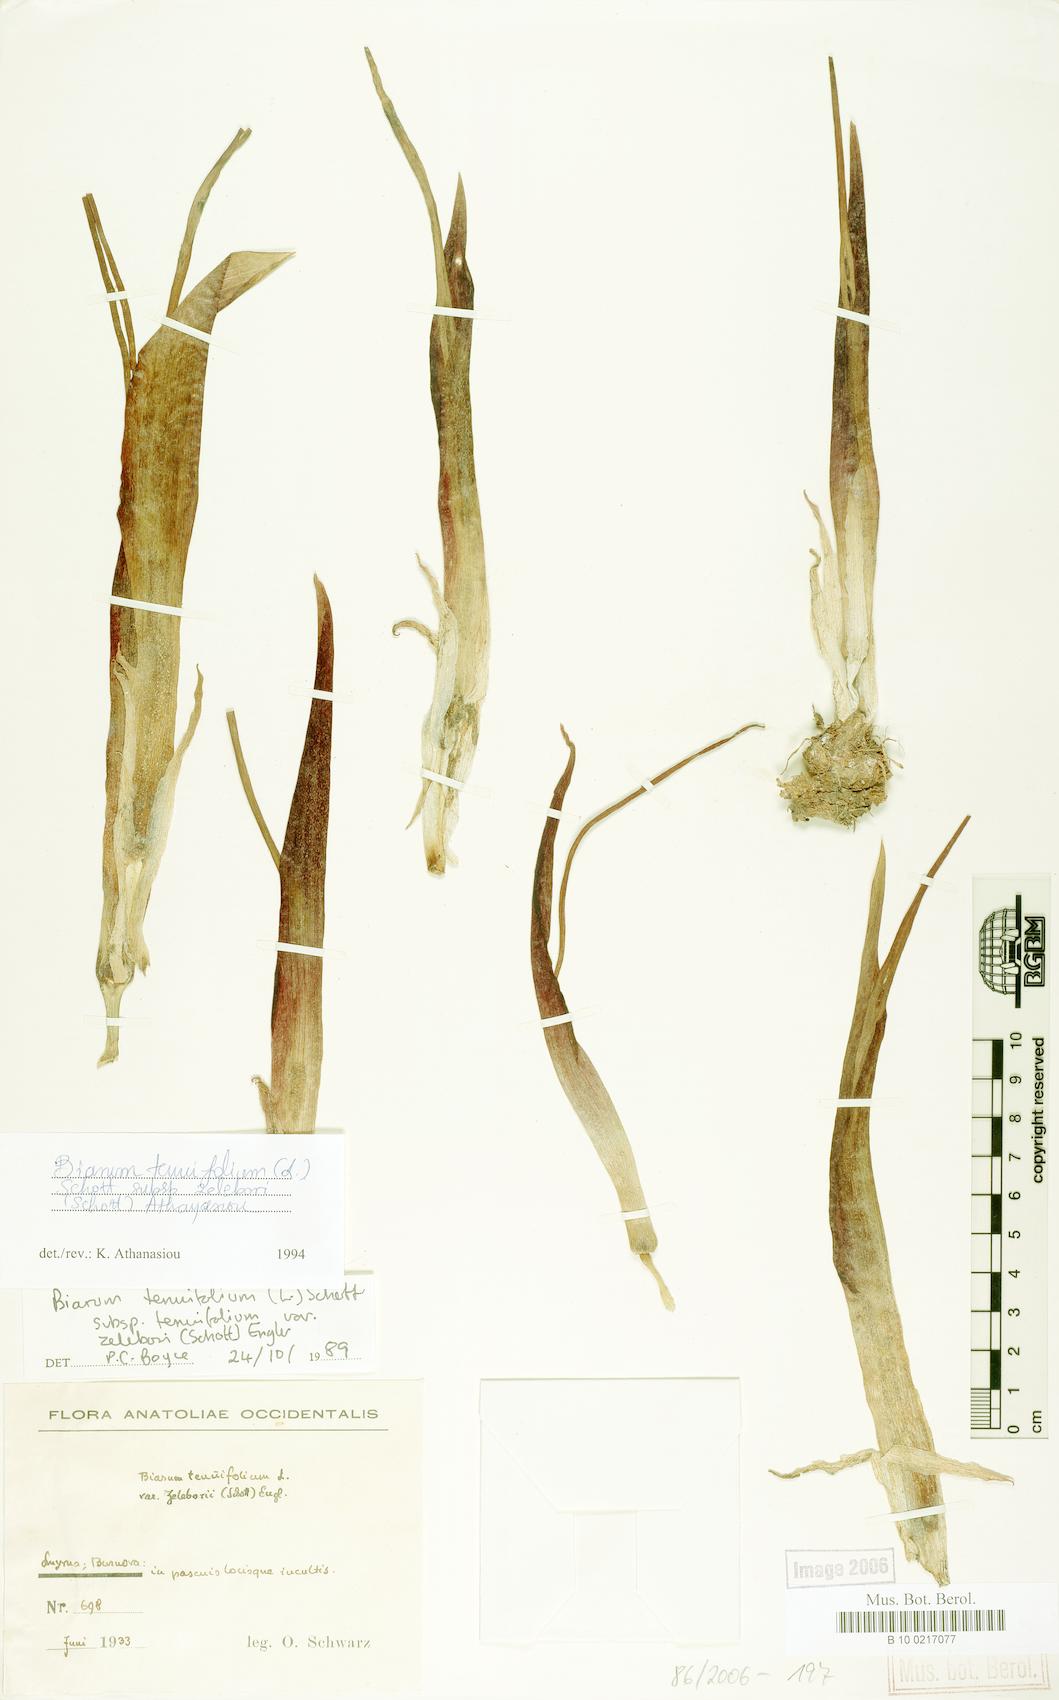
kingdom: Plantae
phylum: Tracheophyta
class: Liliopsida
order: Alismatales
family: Araceae
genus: Biarum
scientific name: Biarum tenuifolium
